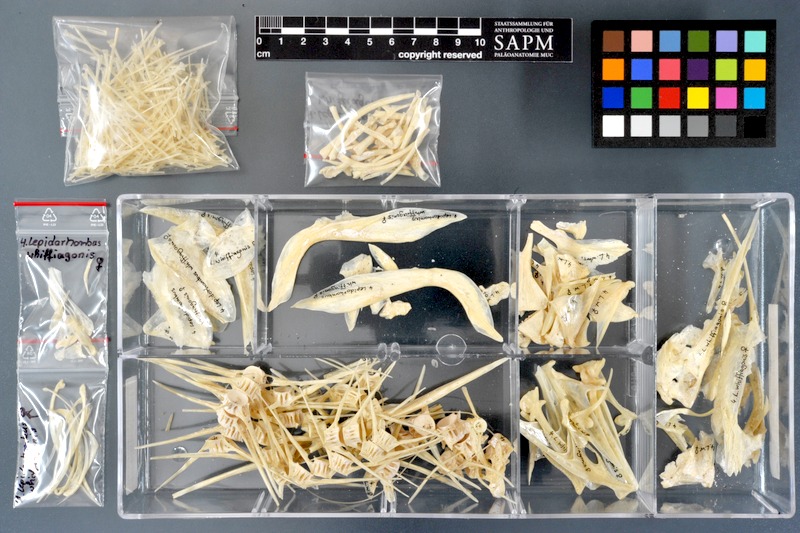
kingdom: Animalia
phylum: Chordata
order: Pleuronectiformes
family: Scophthalmidae
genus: Lepidorhombus
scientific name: Lepidorhombus whiffiagonis
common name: Megrim
